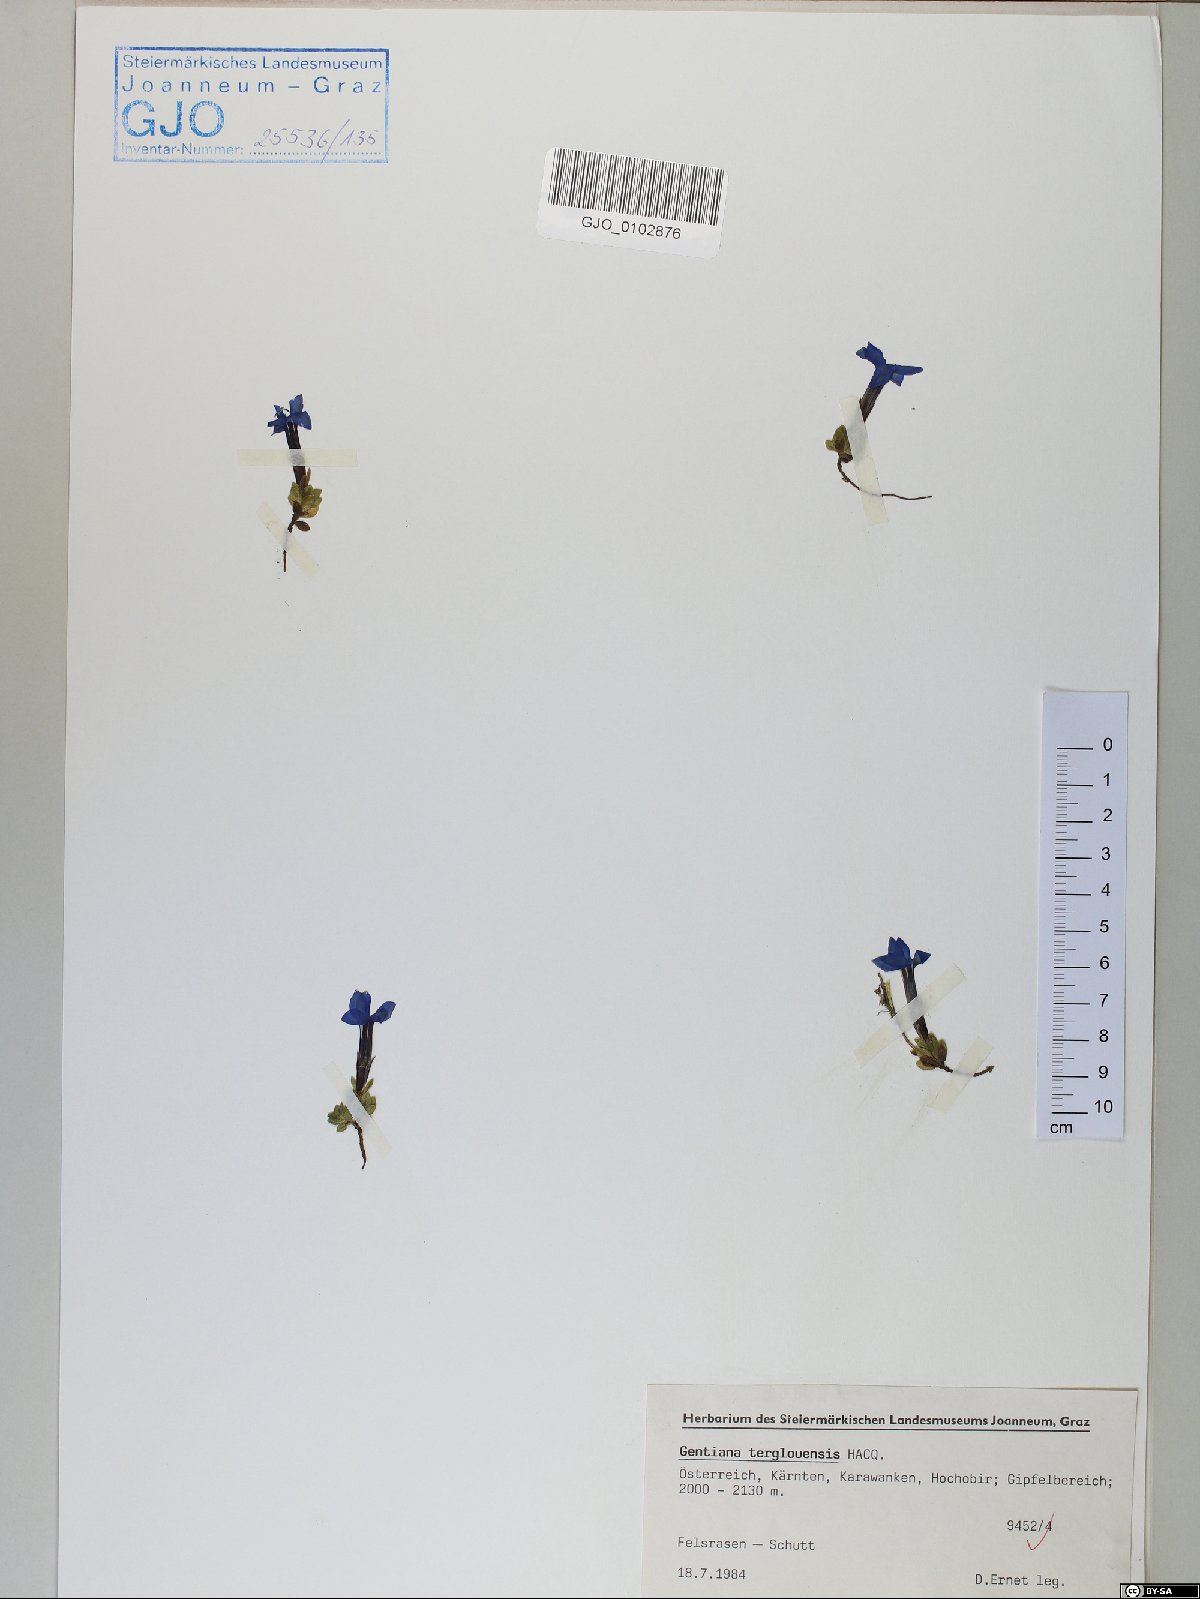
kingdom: Plantae
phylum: Tracheophyta
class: Magnoliopsida
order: Gentianales
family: Gentianaceae
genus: Gentiana
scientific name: Gentiana terglouensis
